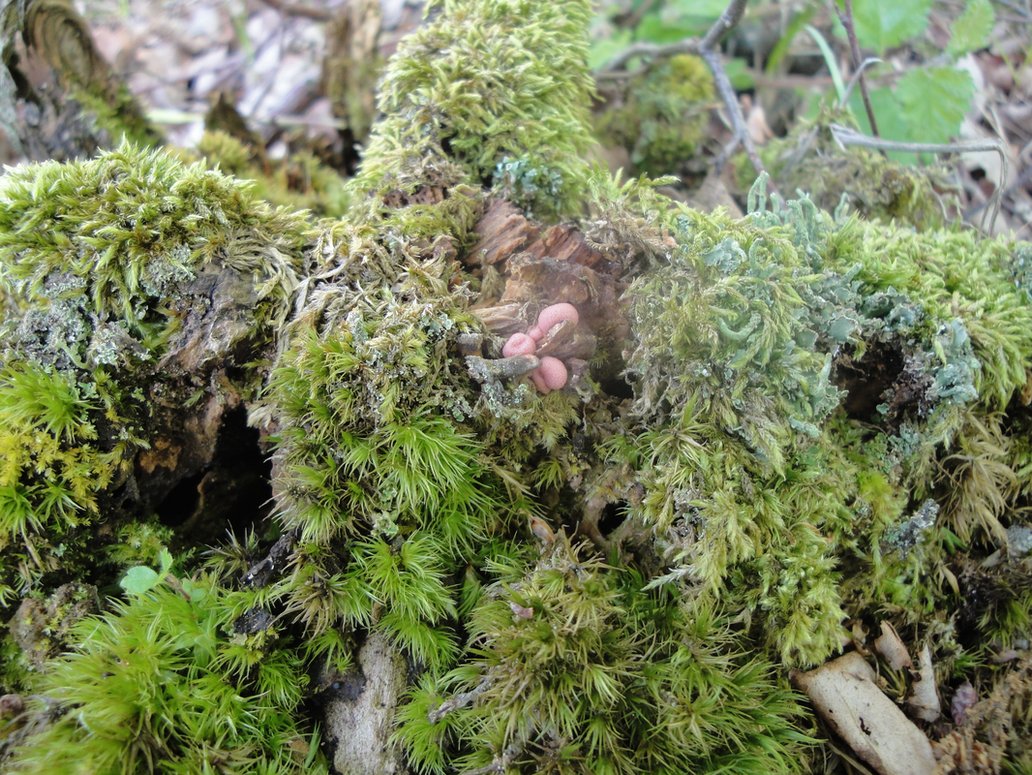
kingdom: Protozoa
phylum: Mycetozoa
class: Myxomycetes
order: Cribrariales
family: Tubiferaceae
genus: Lycogala
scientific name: Lycogala epidendrum
